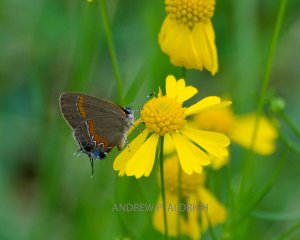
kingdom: Animalia
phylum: Arthropoda
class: Insecta
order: Lepidoptera
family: Lycaenidae
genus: Calycopis
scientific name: Calycopis cecrops
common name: Red-banded Hairstreak
